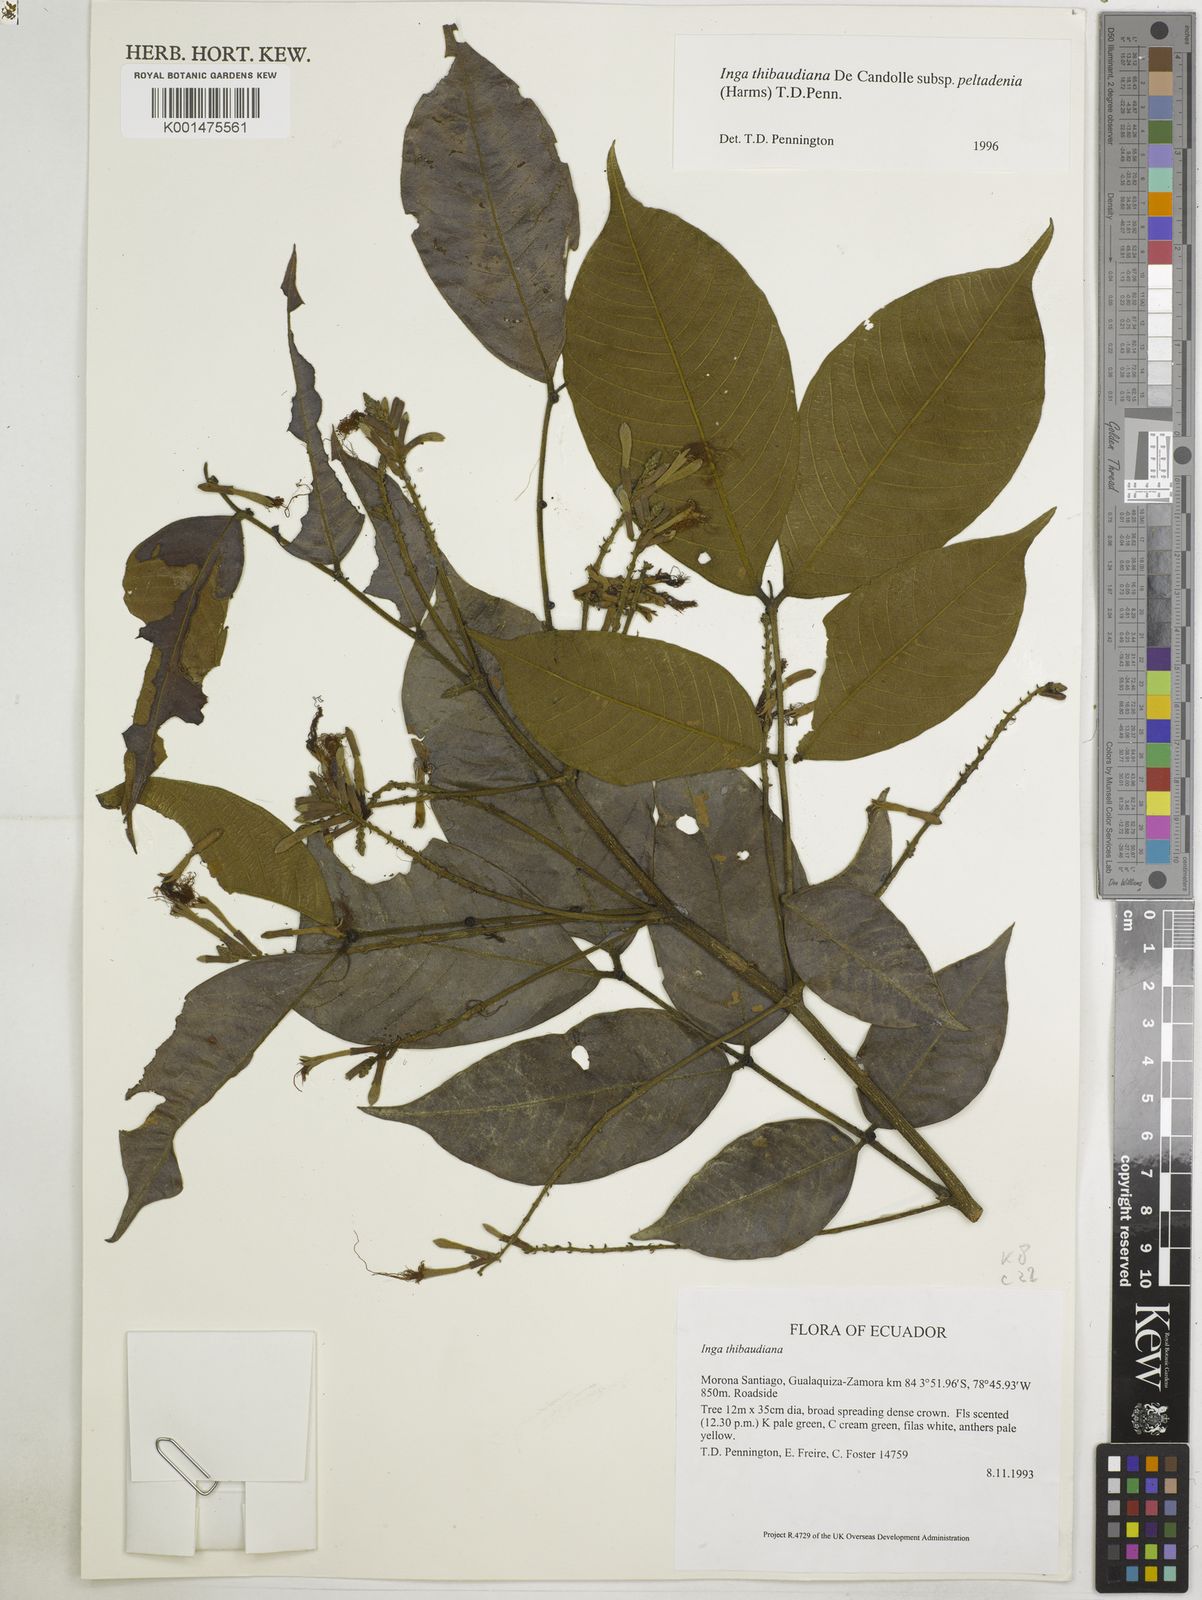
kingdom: Plantae
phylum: Tracheophyta
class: Magnoliopsida
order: Fabales
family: Fabaceae
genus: Inga
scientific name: Inga thibaudiana
